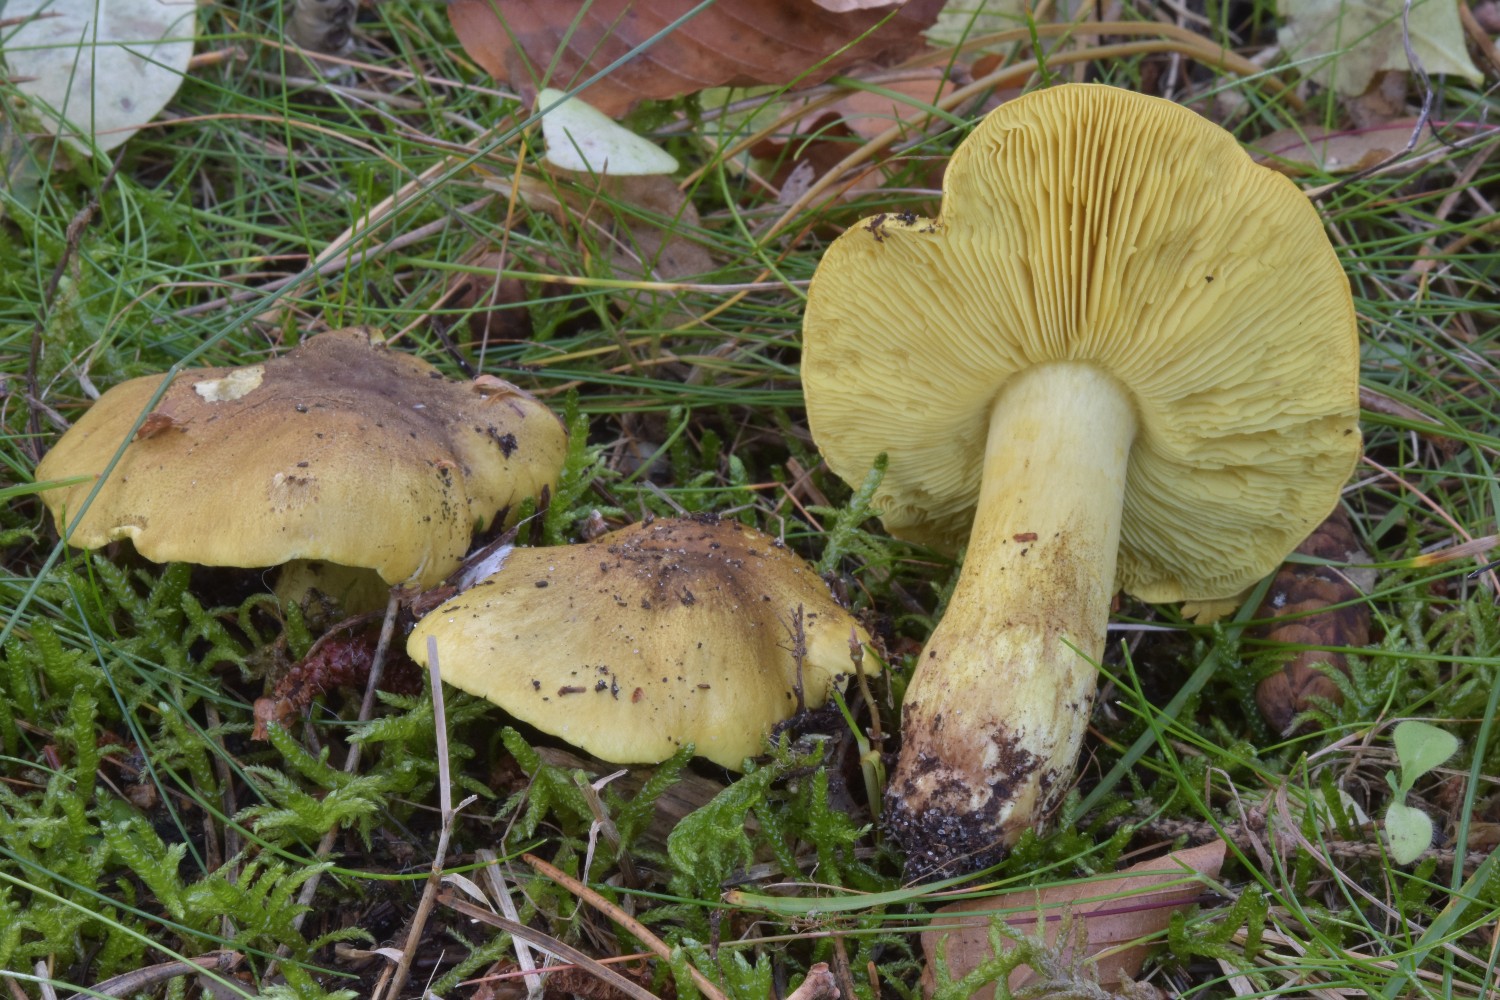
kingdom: Fungi
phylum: Basidiomycota
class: Agaricomycetes
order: Agaricales
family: Tricholomataceae
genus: Tricholoma
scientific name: Tricholoma equestre
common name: ægte ridderhat
